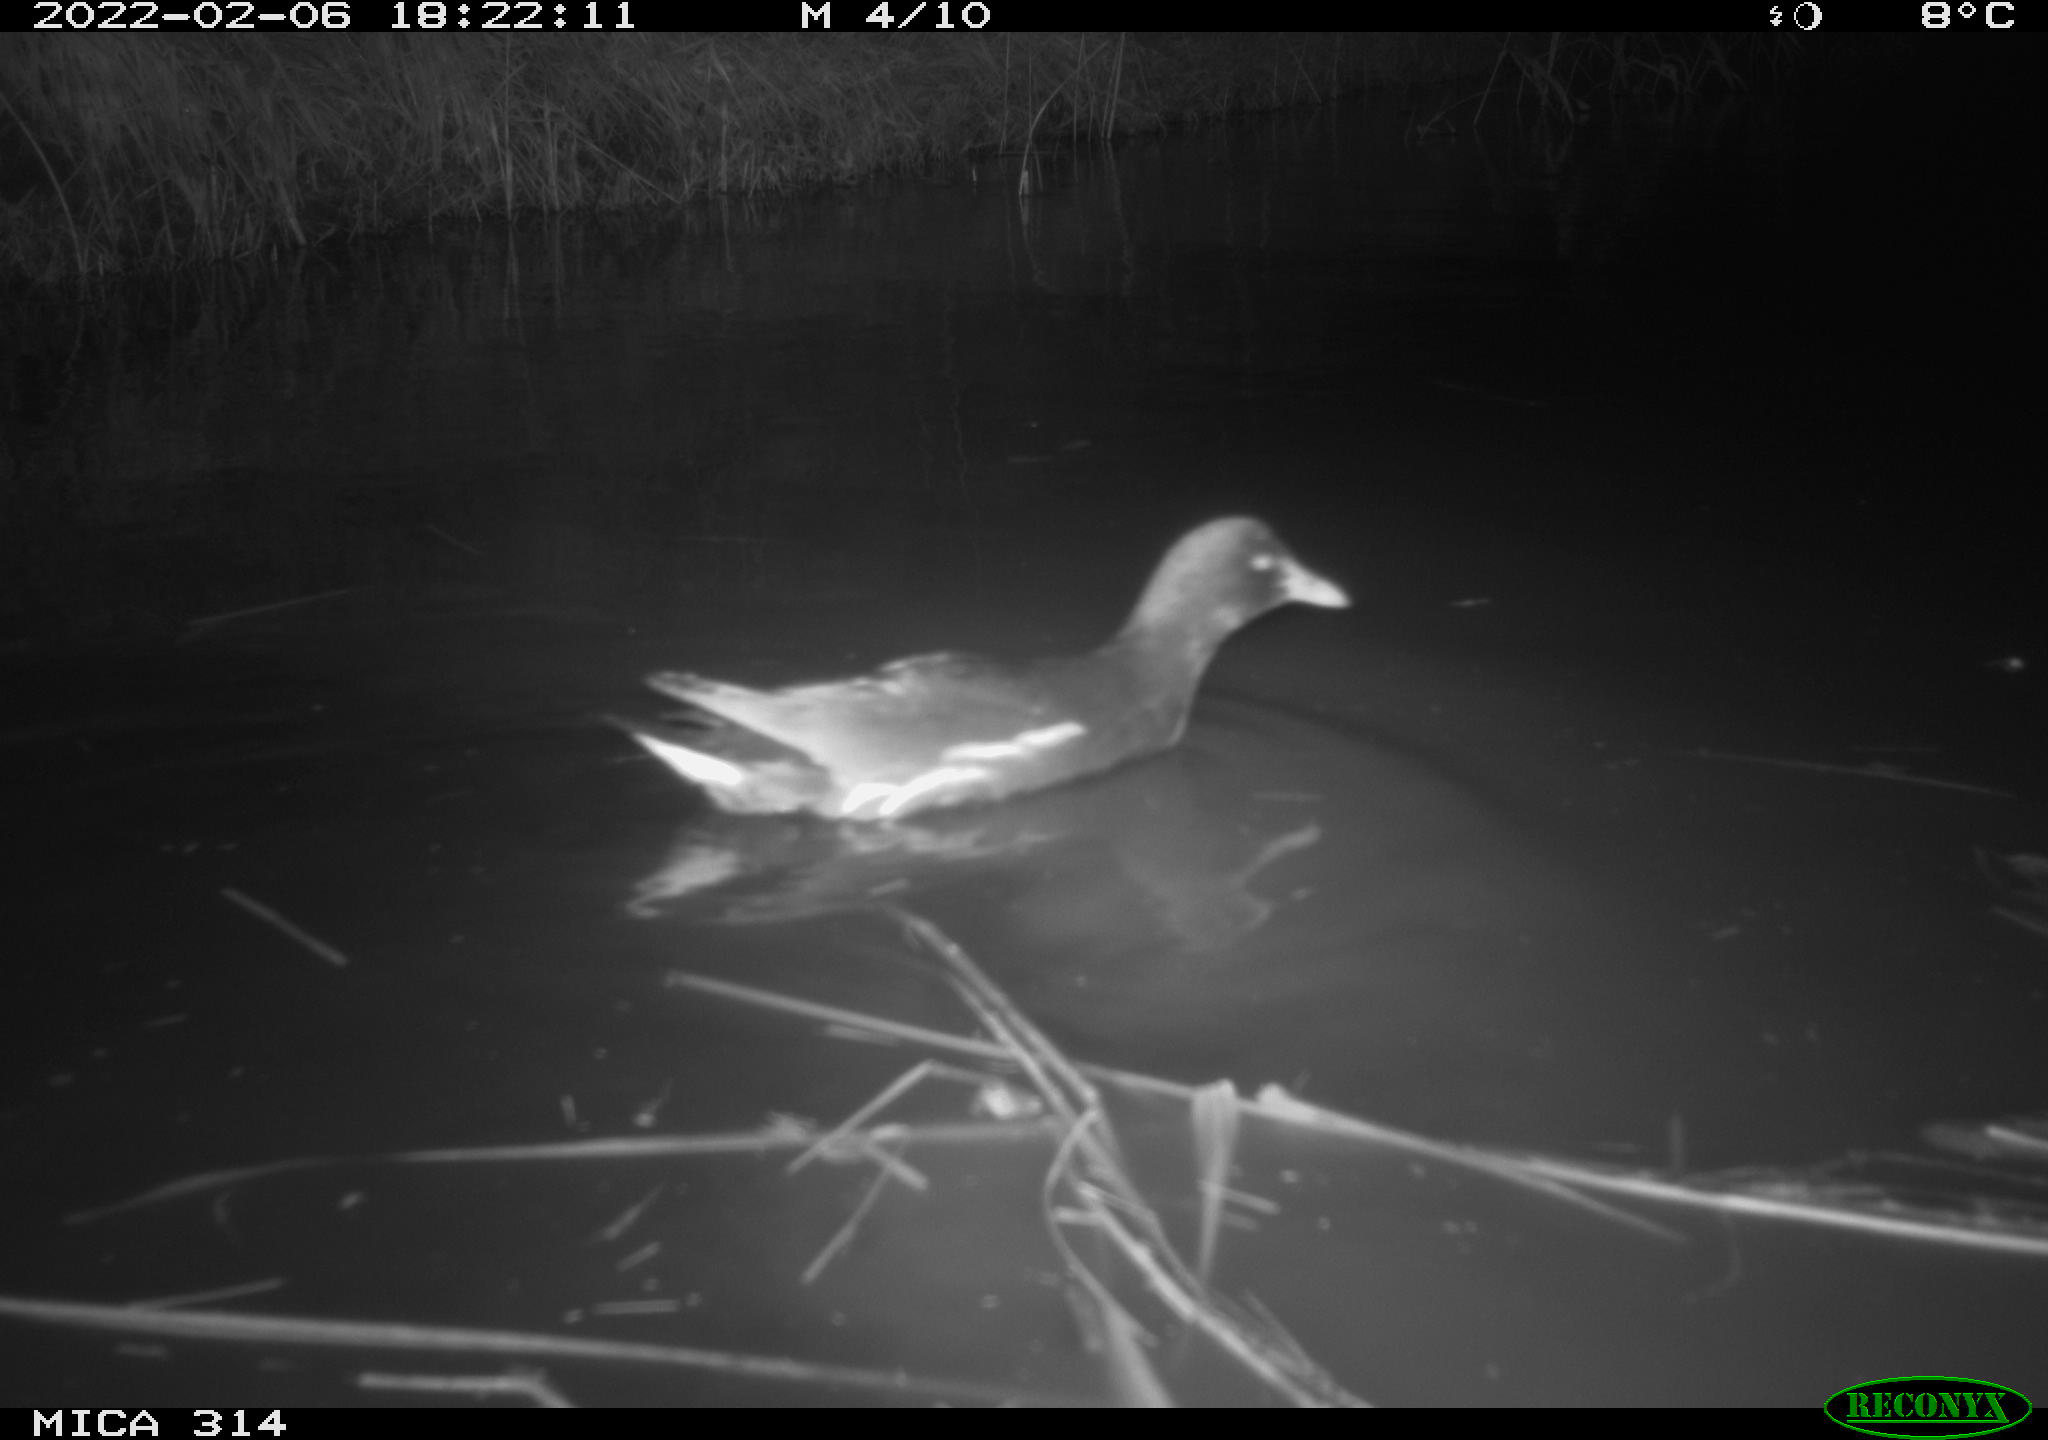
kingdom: Animalia
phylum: Chordata
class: Aves
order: Gruiformes
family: Rallidae
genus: Gallinula
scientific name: Gallinula chloropus
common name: Common moorhen
